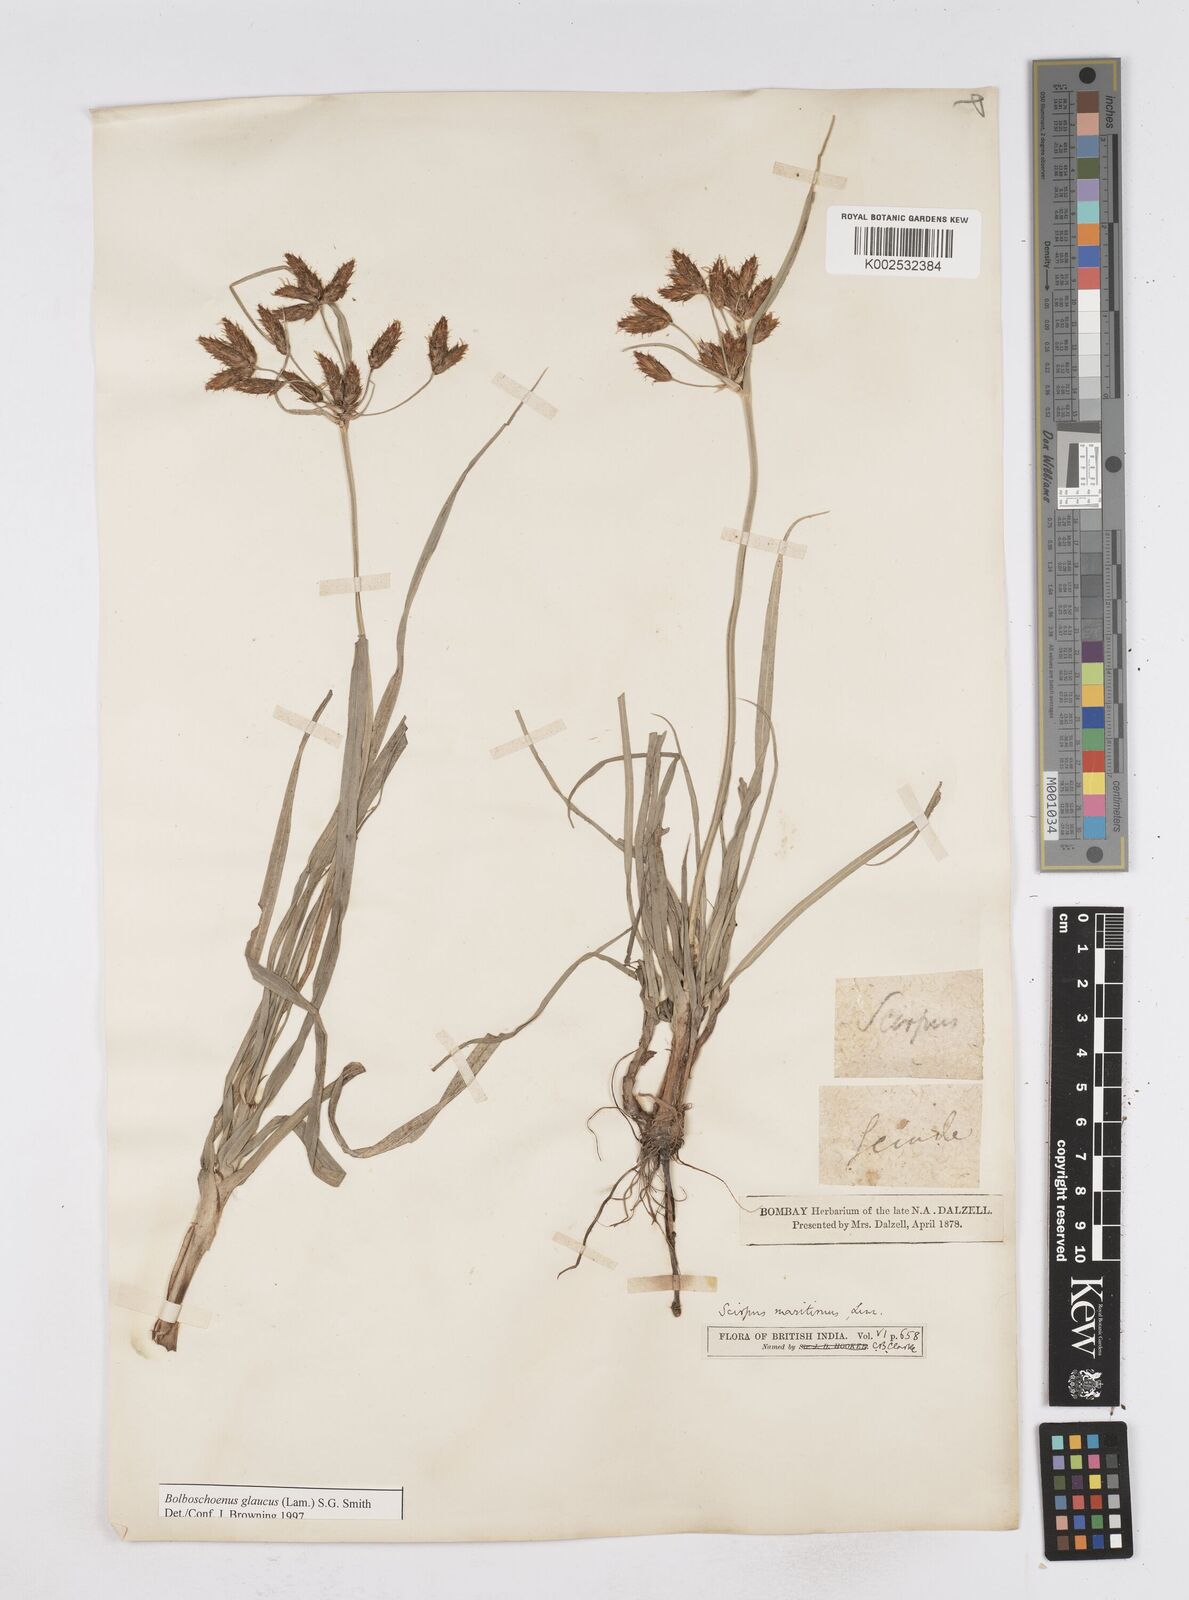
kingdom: Plantae
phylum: Tracheophyta
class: Liliopsida
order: Poales
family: Cyperaceae
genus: Bolboschoenus
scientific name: Bolboschoenus maritimus
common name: Sea club-rush
